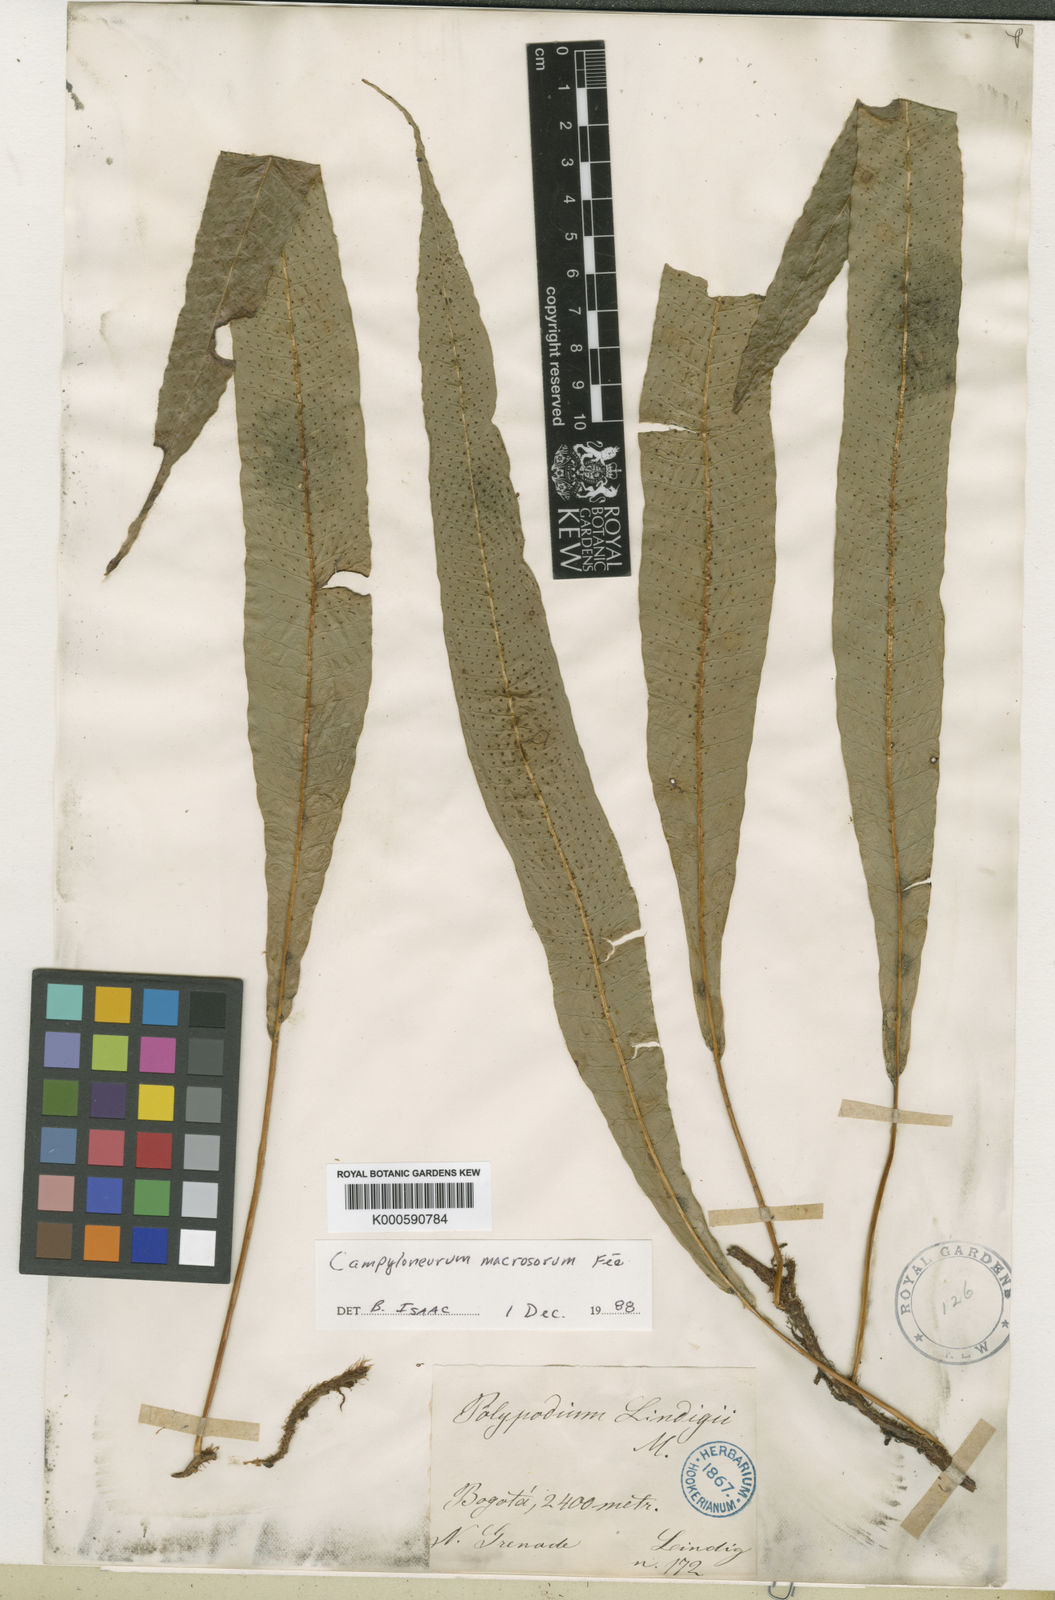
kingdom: Plantae
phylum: Tracheophyta
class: Polypodiopsida
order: Polypodiales
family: Polypodiaceae
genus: Campyloneurum
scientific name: Campyloneurum
